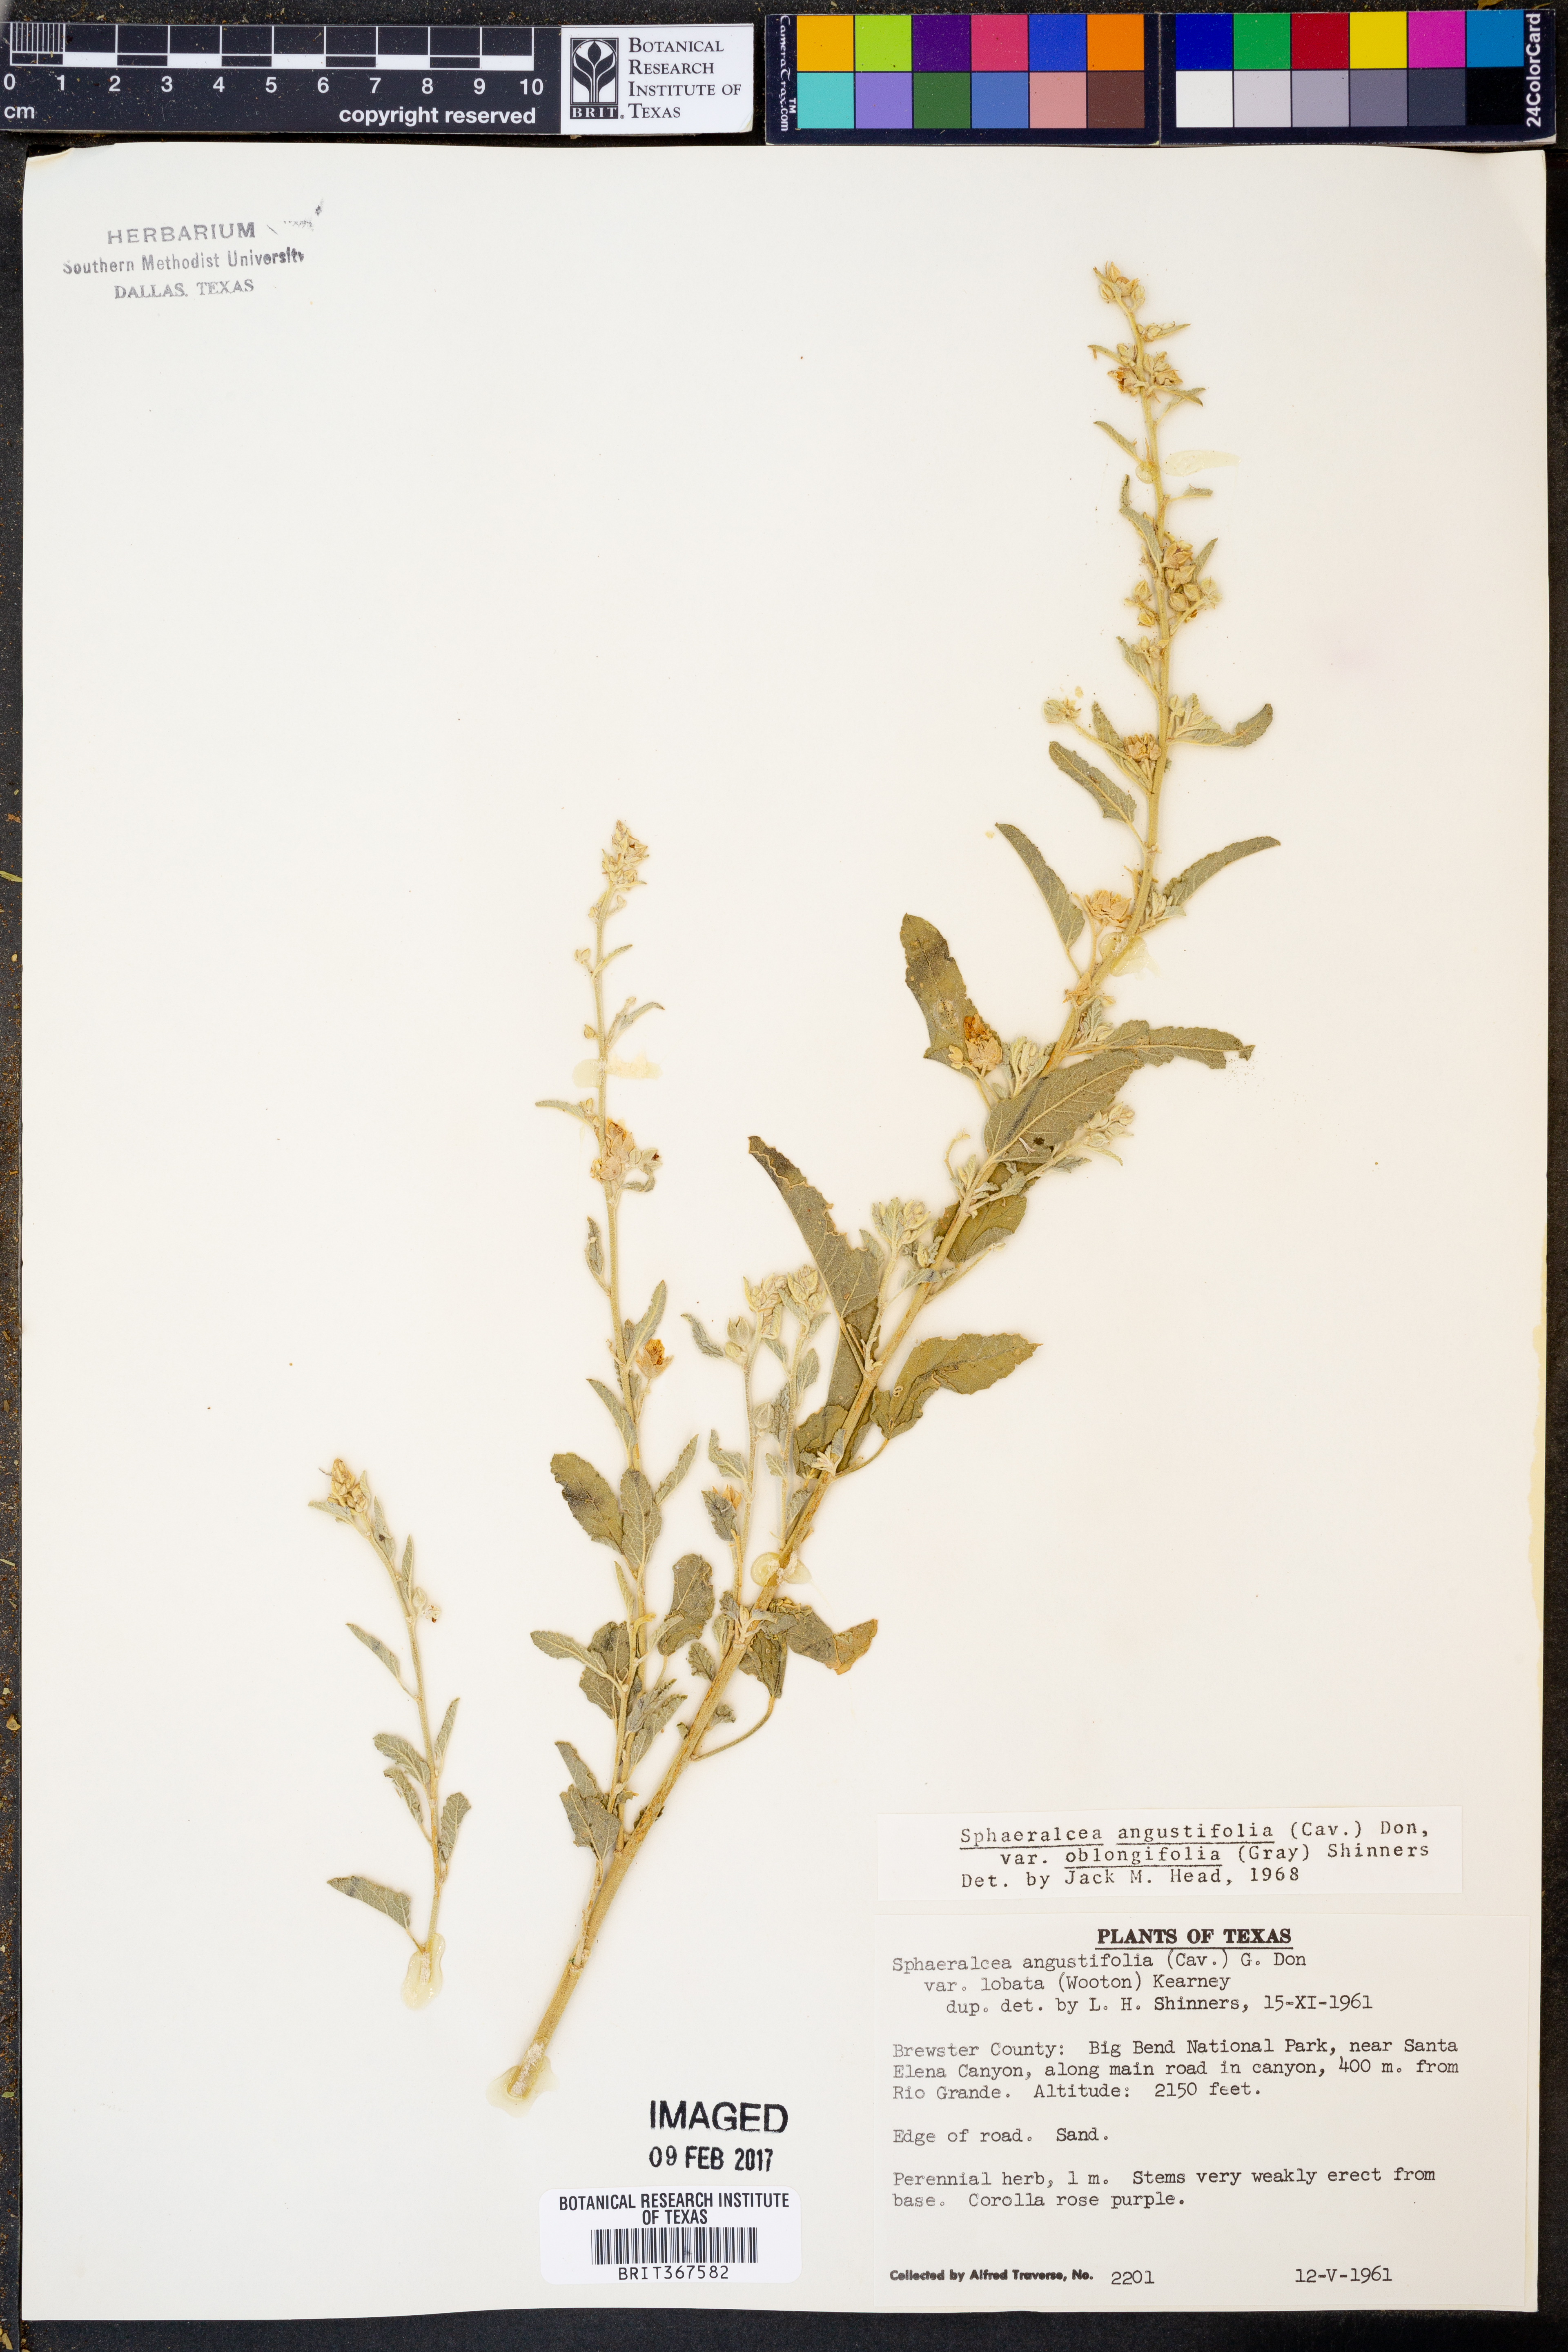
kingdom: Plantae
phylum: Tracheophyta
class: Magnoliopsida
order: Malvales
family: Malvaceae
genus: Sphaeralcea
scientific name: Sphaeralcea angustifolia
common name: Copper globe-mallow
